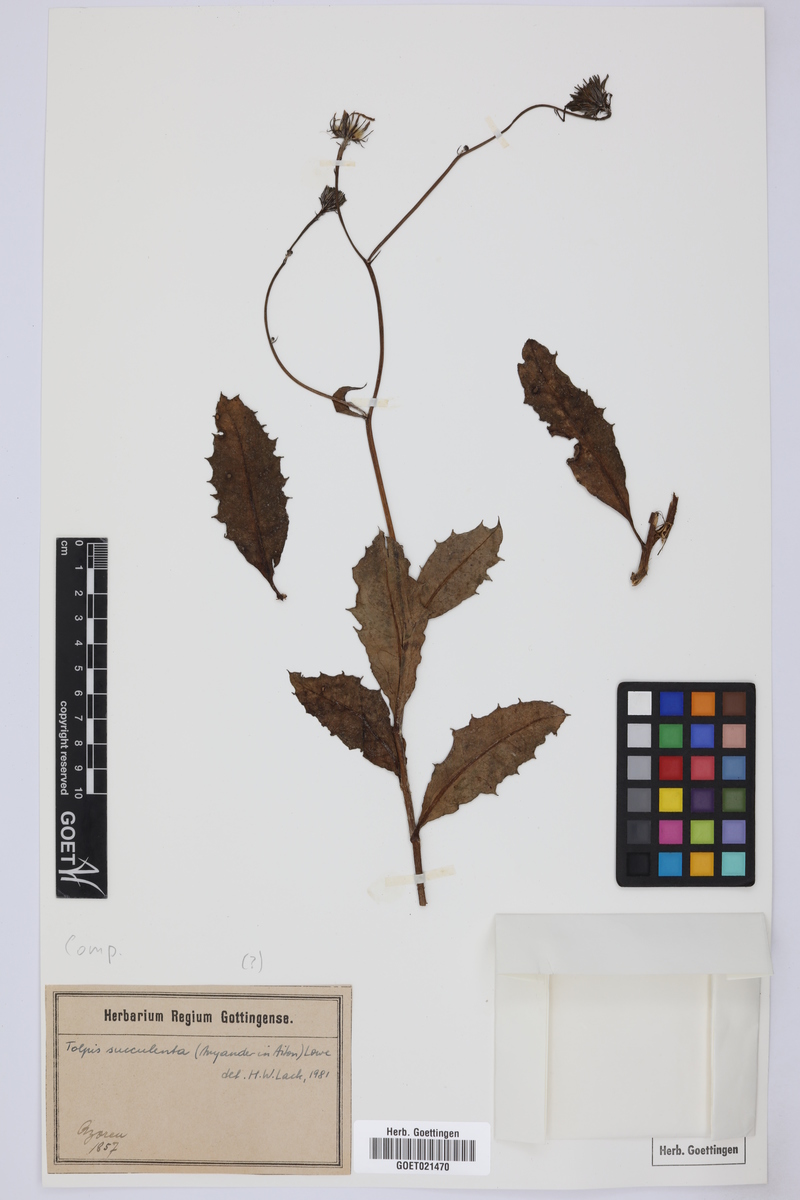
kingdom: Plantae
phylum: Tracheophyta
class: Magnoliopsida
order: Asterales
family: Asteraceae
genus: Tolpis
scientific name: Tolpis succulenta
